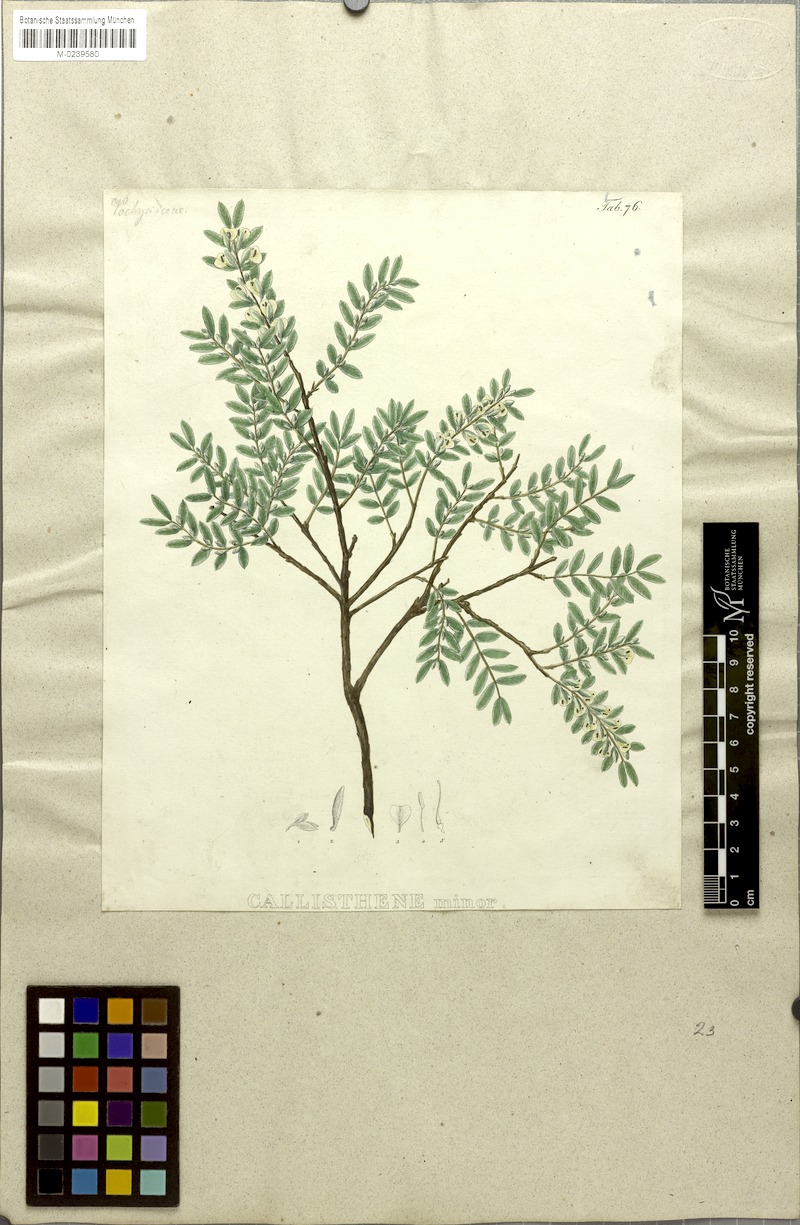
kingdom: Plantae
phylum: Tracheophyta
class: Magnoliopsida
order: Myrtales
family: Vochysiaceae
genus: Callisthene
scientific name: Callisthene minor
